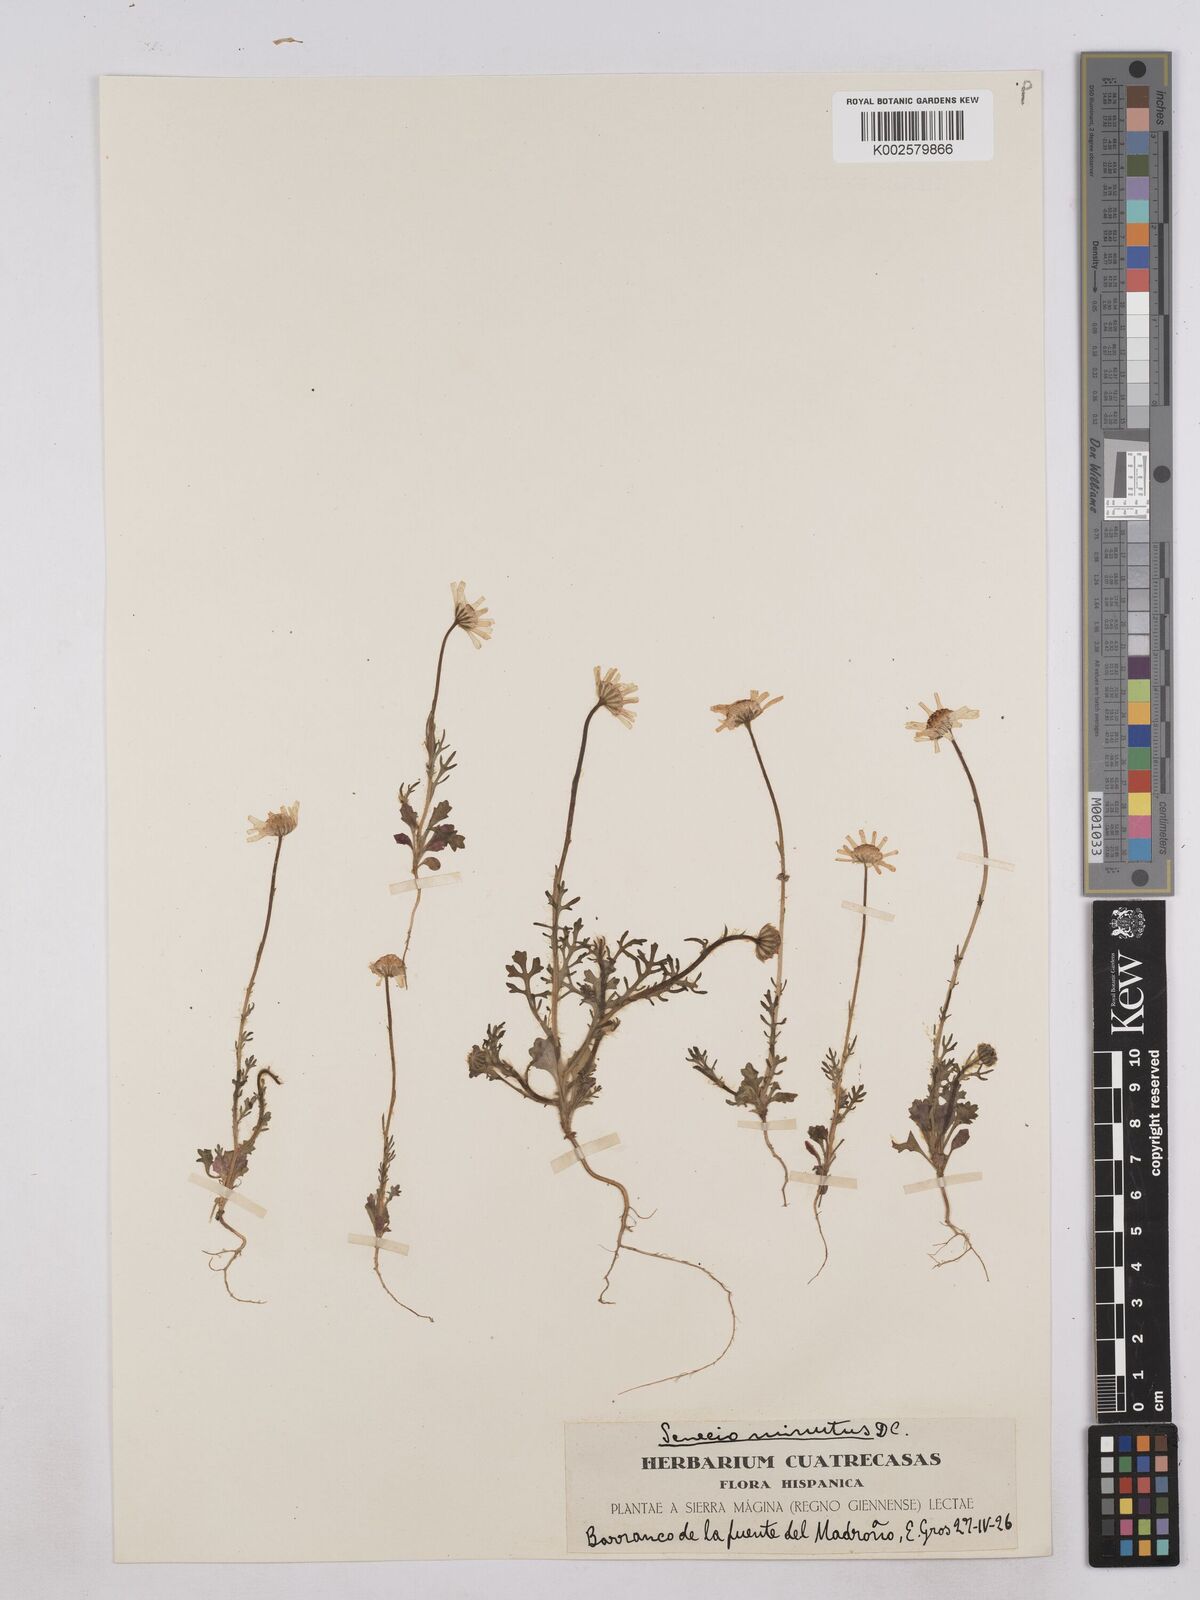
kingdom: Plantae
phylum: Tracheophyta
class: Magnoliopsida
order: Asterales
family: Asteraceae
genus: Jacobaea
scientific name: Jacobaea minuta
